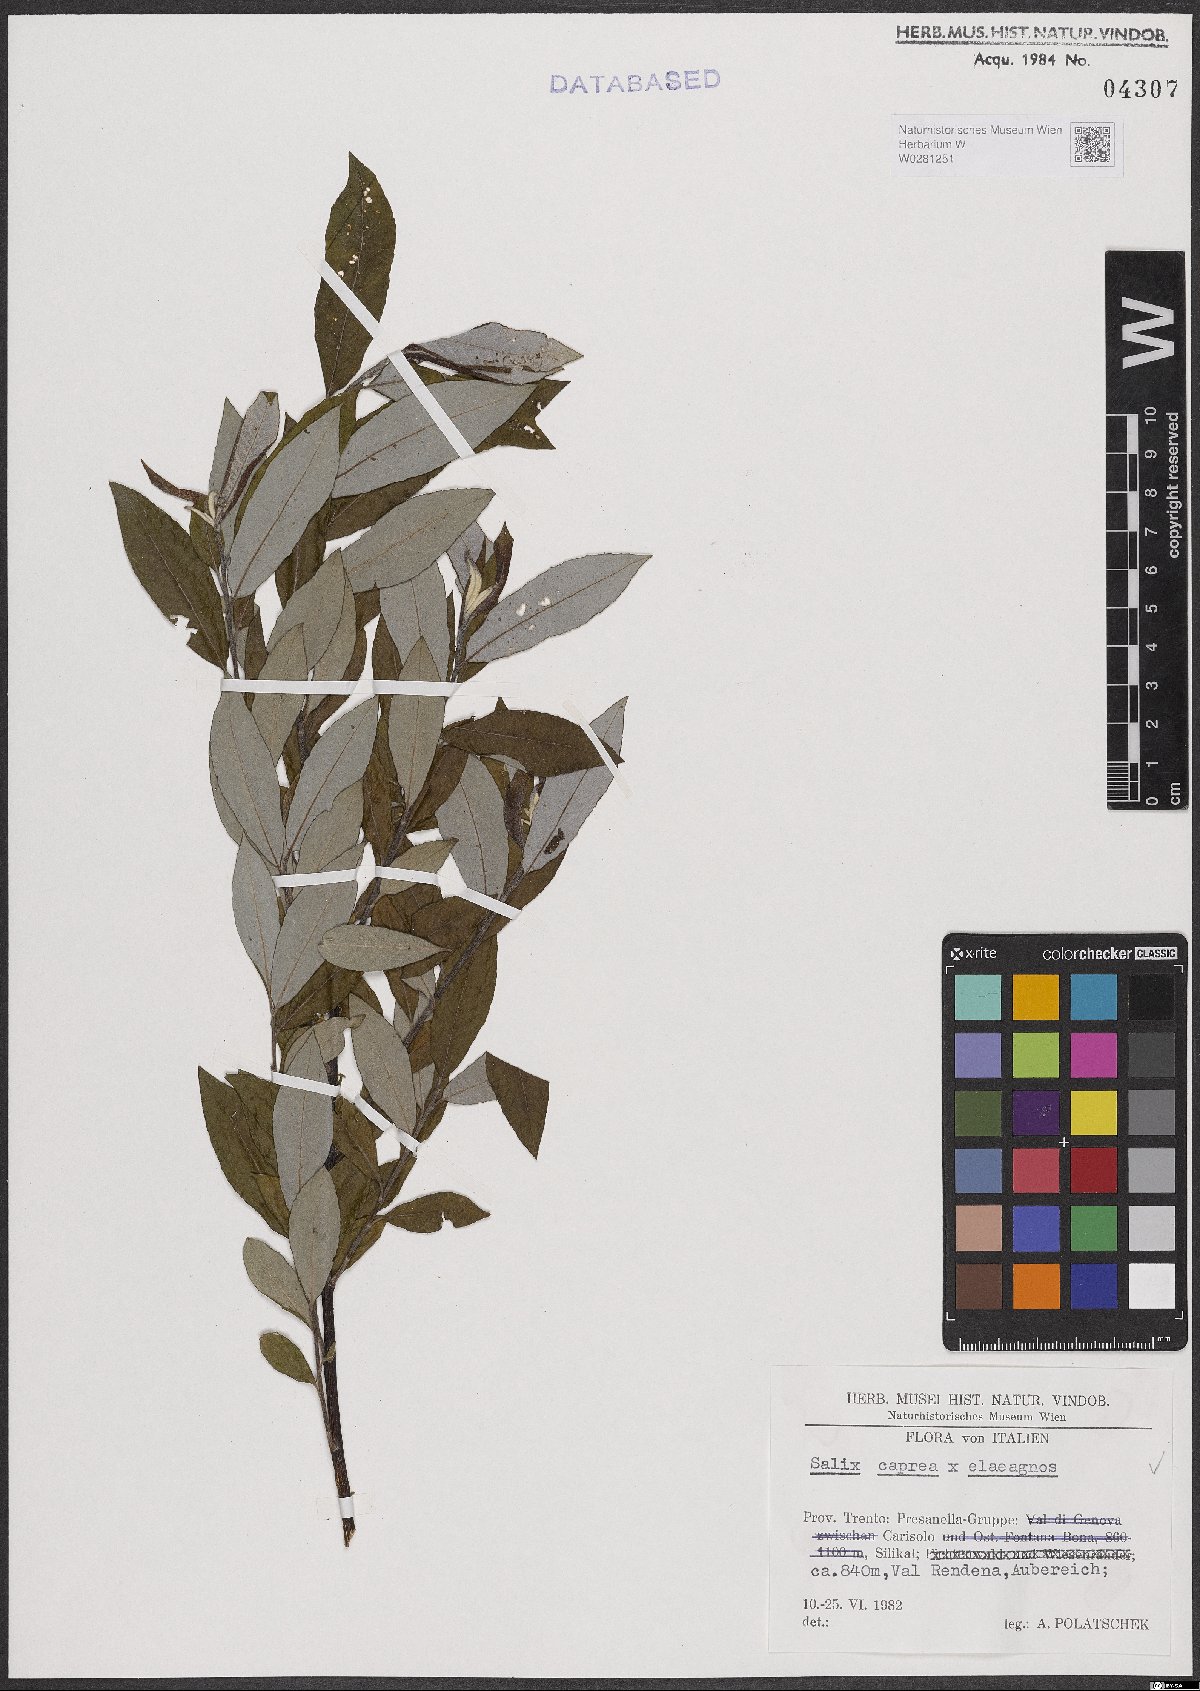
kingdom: Plantae
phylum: Tracheophyta
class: Magnoliopsida
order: Malpighiales
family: Salicaceae
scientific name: Salicaceae
